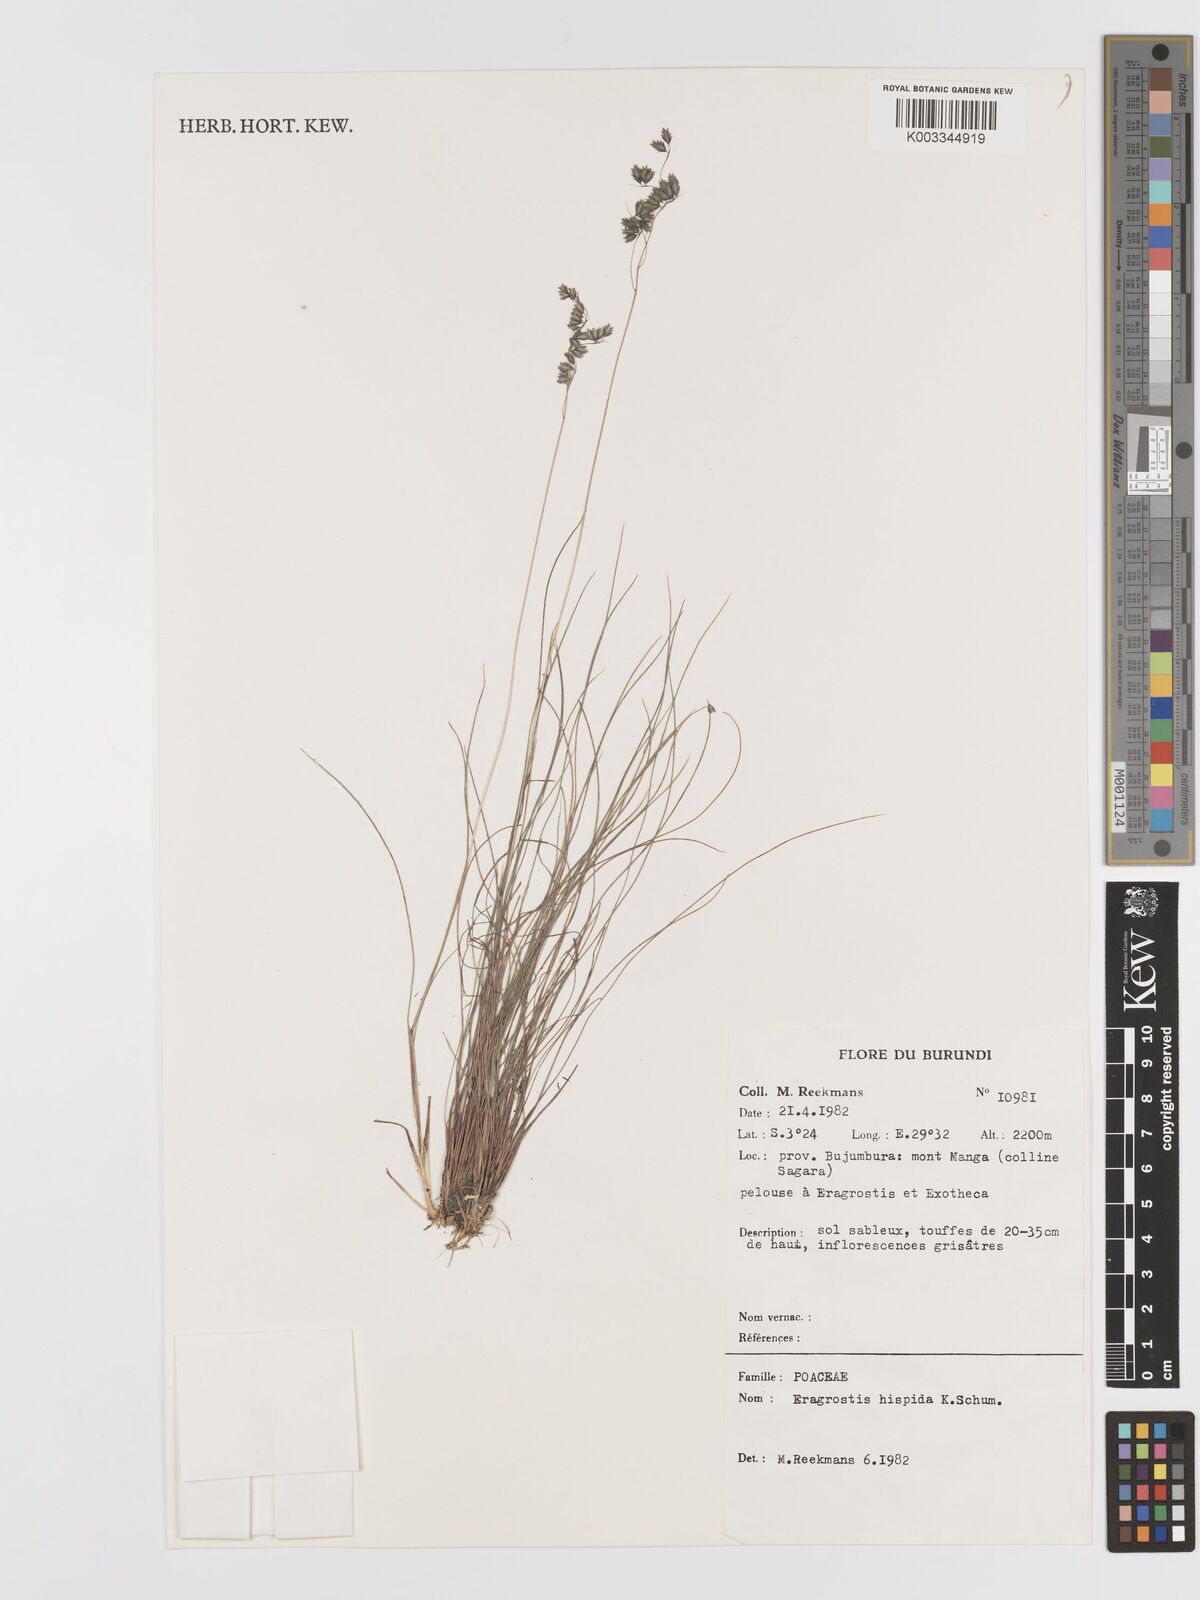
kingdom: Plantae
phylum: Tracheophyta
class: Liliopsida
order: Poales
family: Poaceae
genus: Eragrostis
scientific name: Eragrostis hispida
